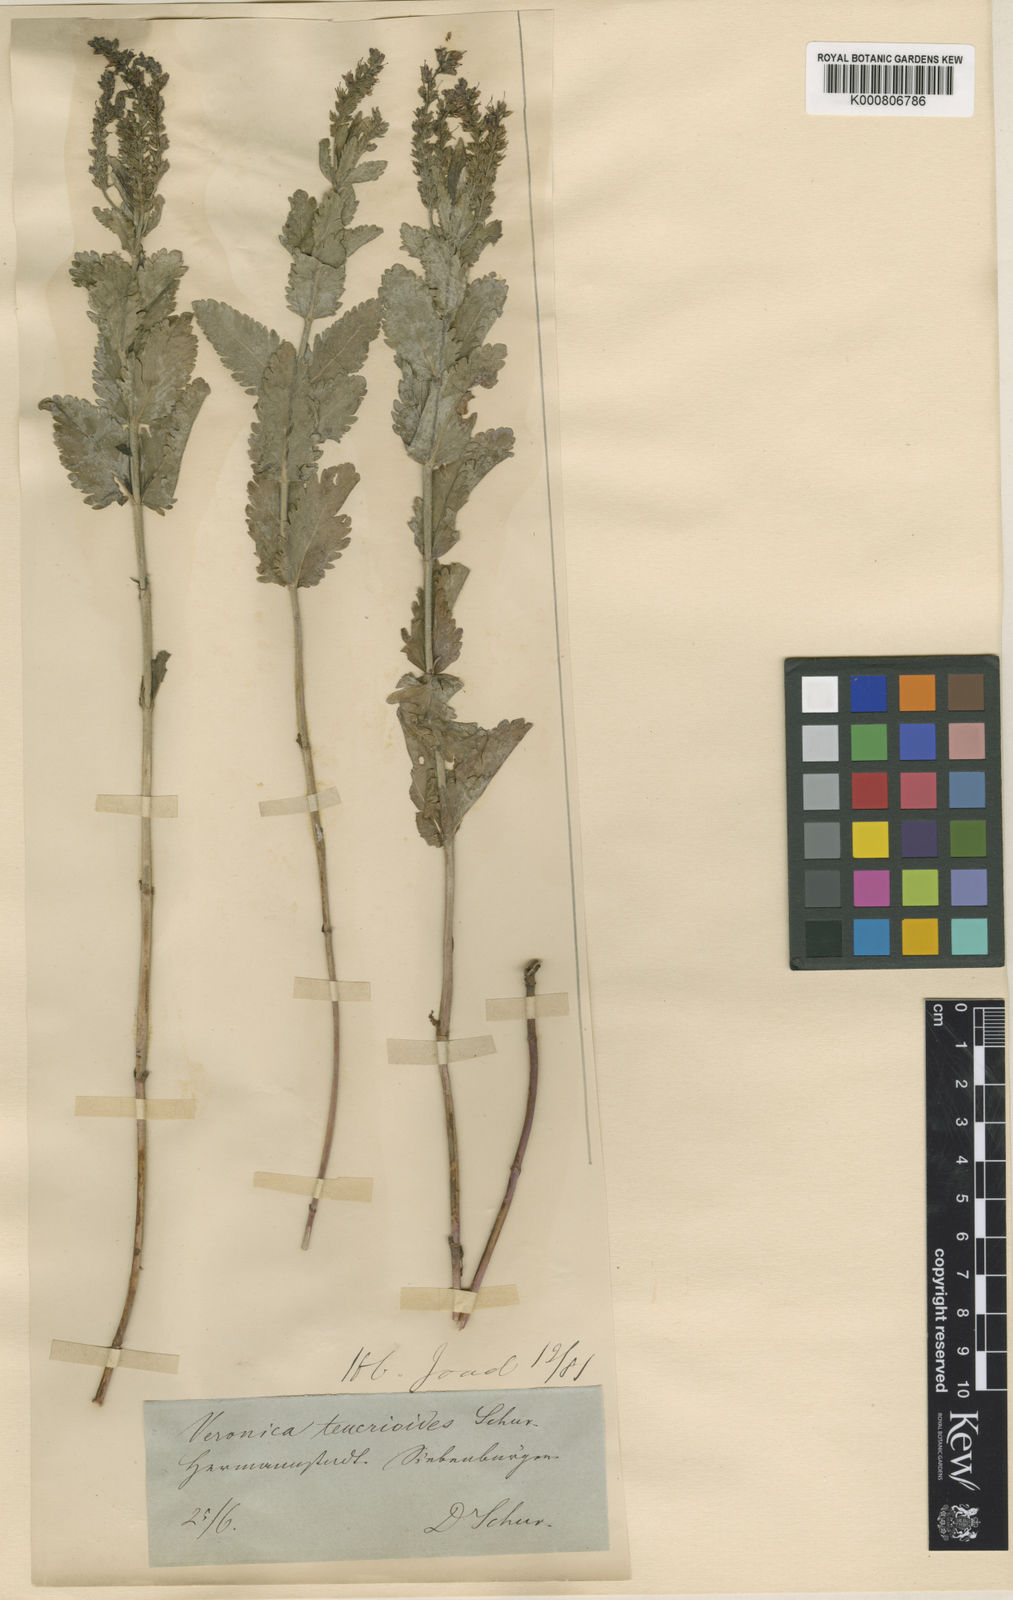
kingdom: Plantae
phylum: Tracheophyta
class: Magnoliopsida
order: Lamiales
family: Plantaginaceae
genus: Veronica
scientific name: Veronica teucrium
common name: Large speedwell
